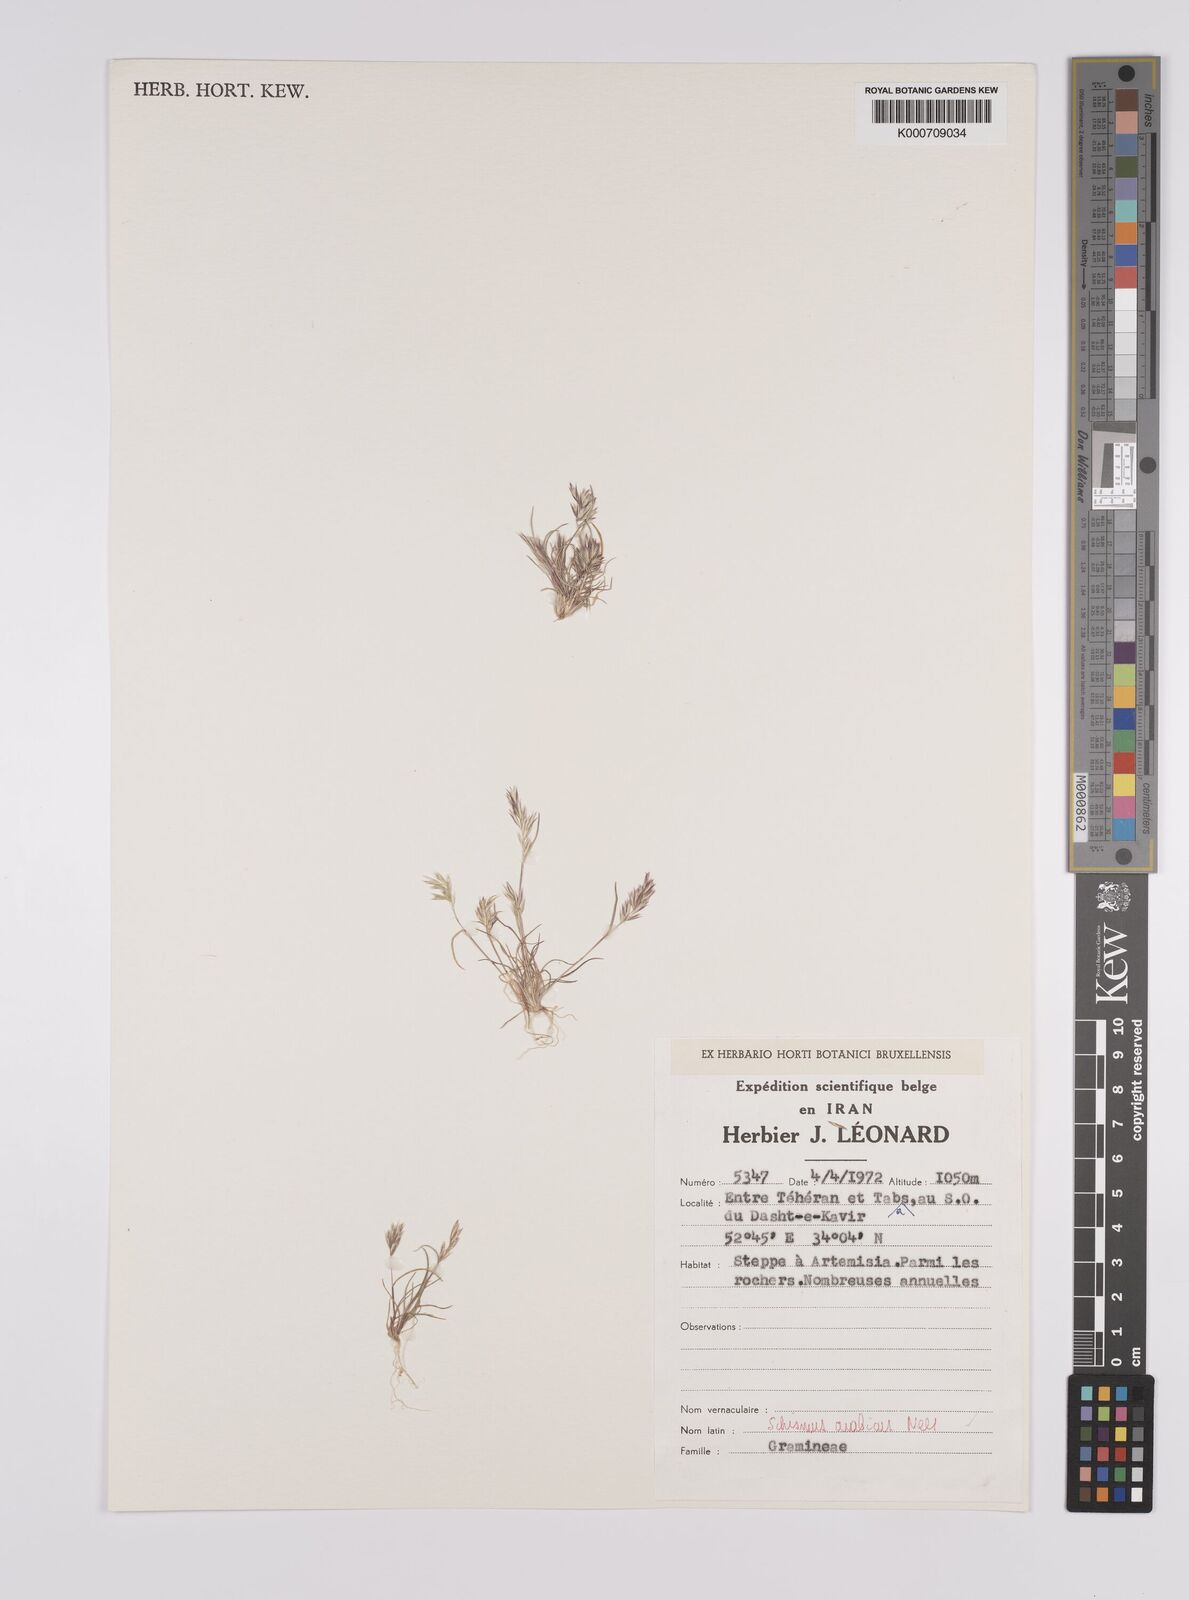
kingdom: Plantae
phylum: Tracheophyta
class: Liliopsida
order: Poales
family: Poaceae
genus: Schismus
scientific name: Schismus arabicus
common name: Arabian schismus
